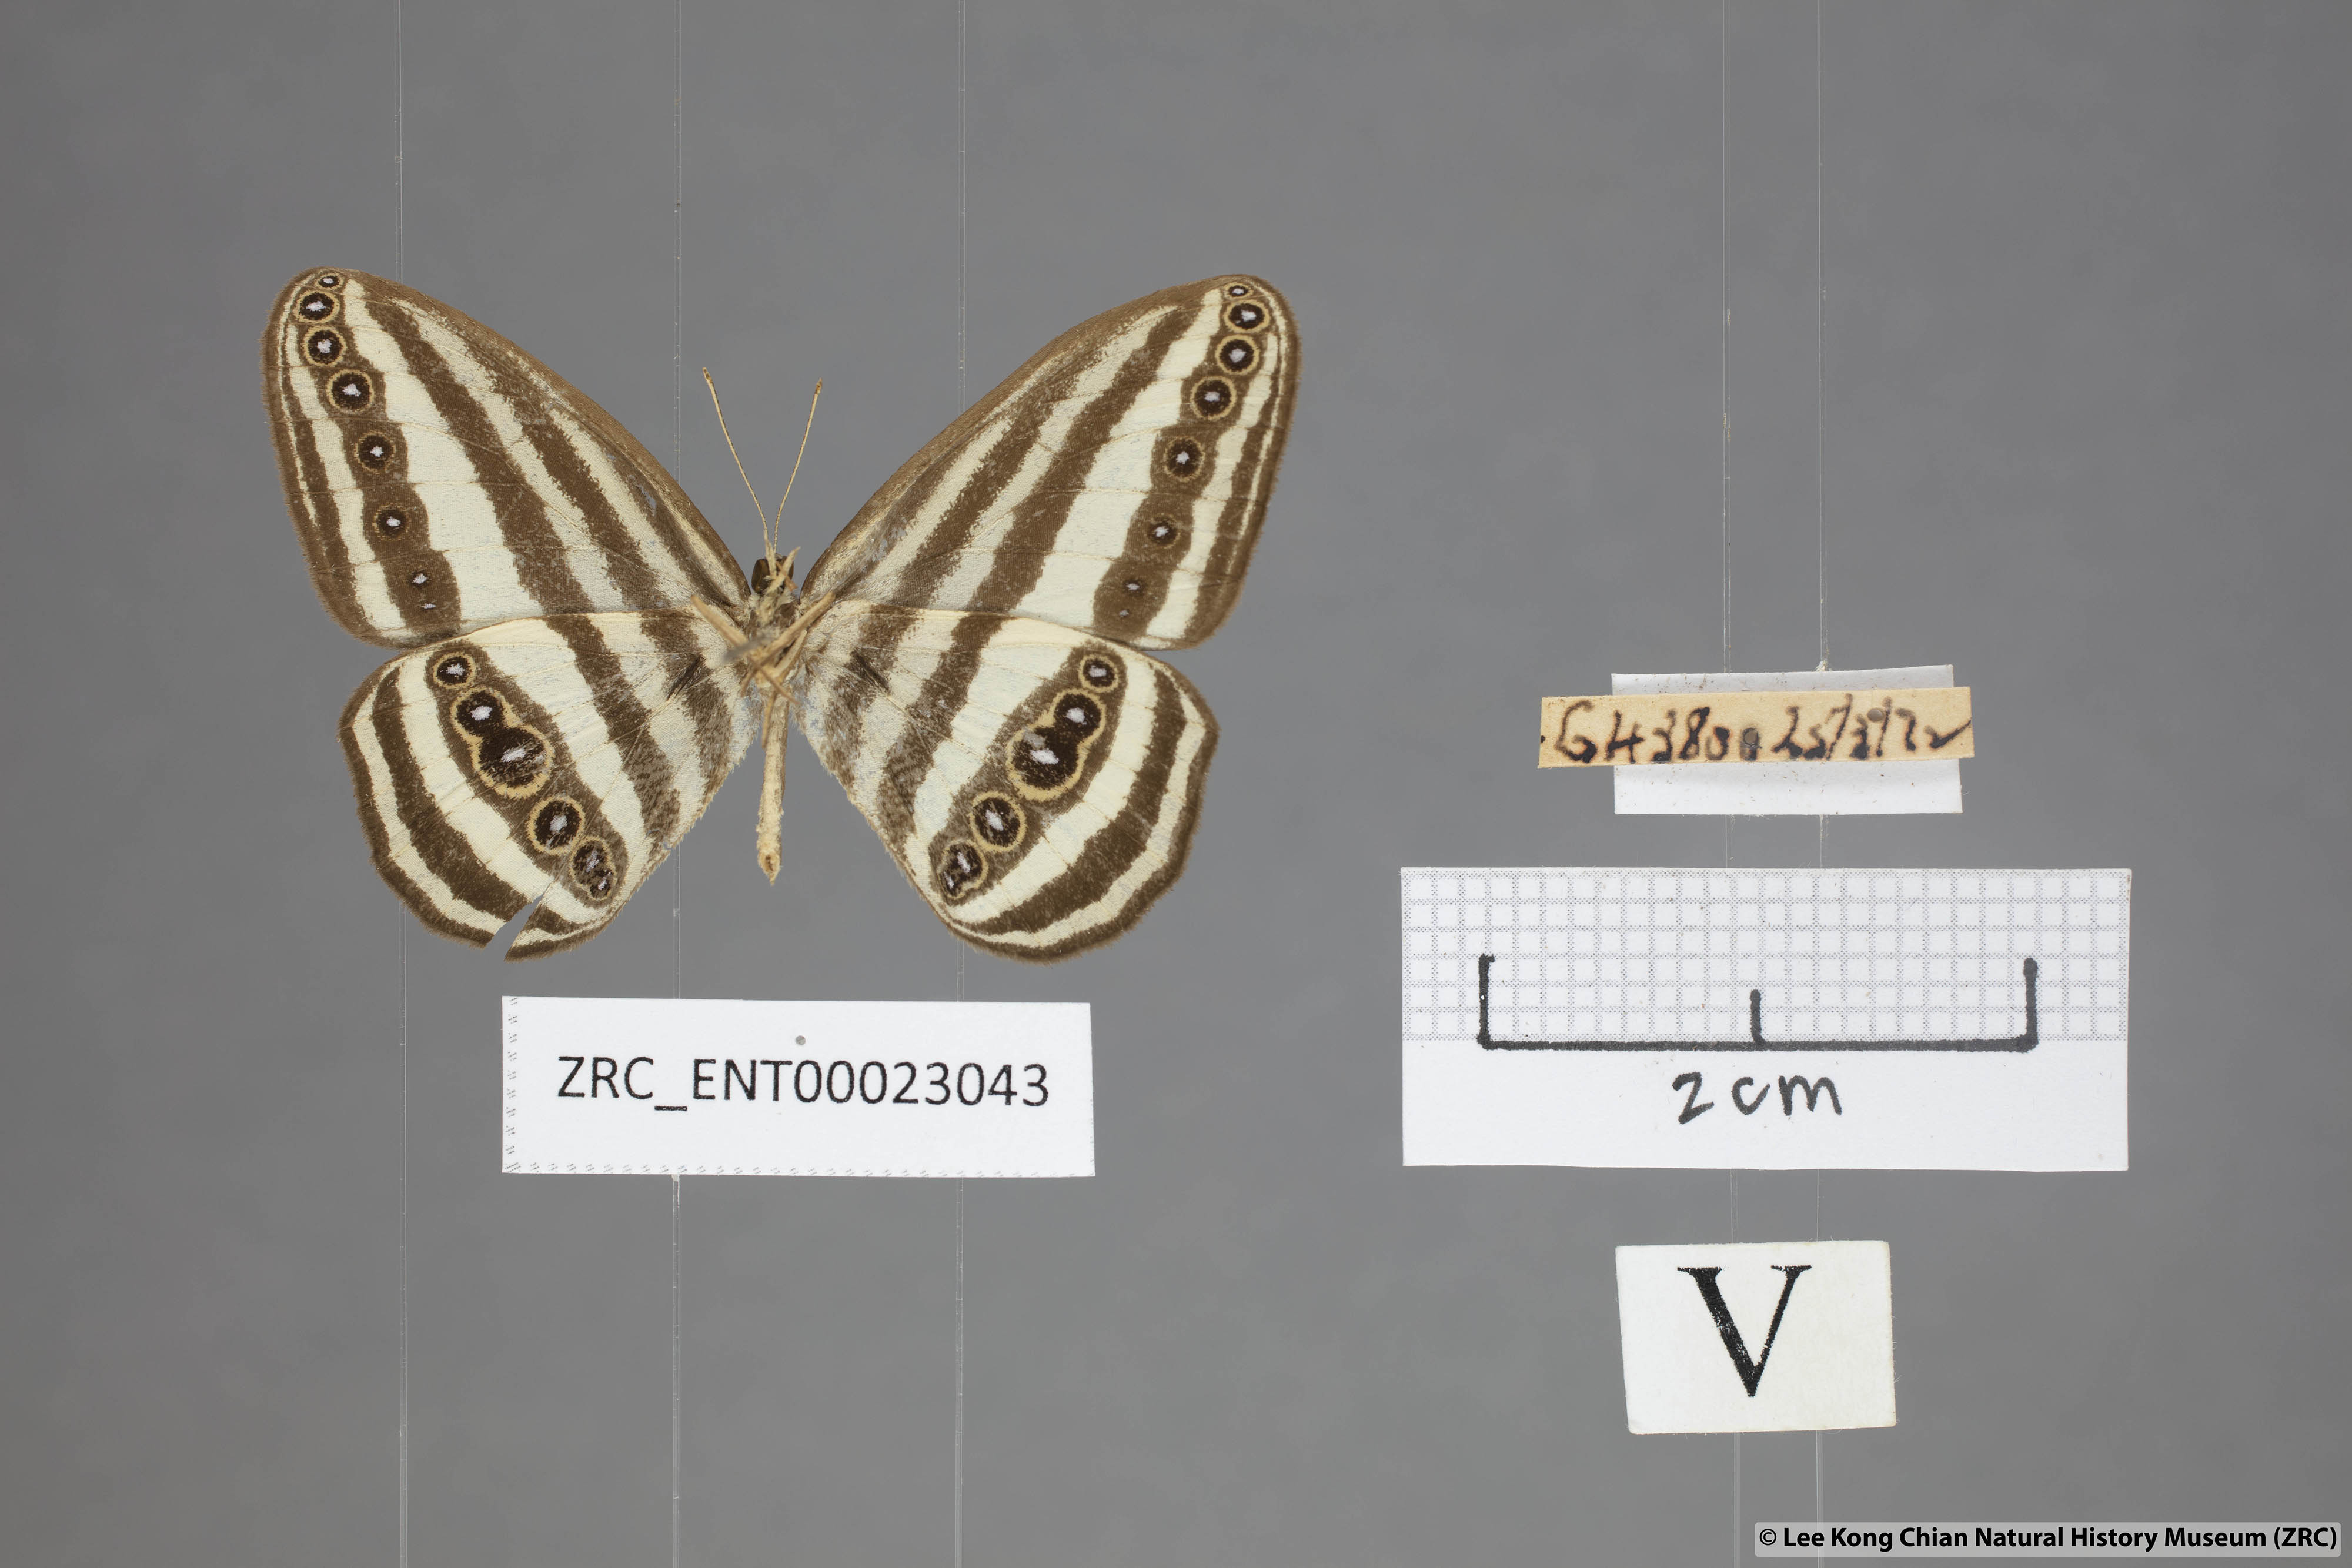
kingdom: Animalia
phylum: Arthropoda
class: Insecta
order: Lepidoptera
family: Nymphalidae
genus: Ragadia
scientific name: Ragadia crisilda
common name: White-striped ringlet
